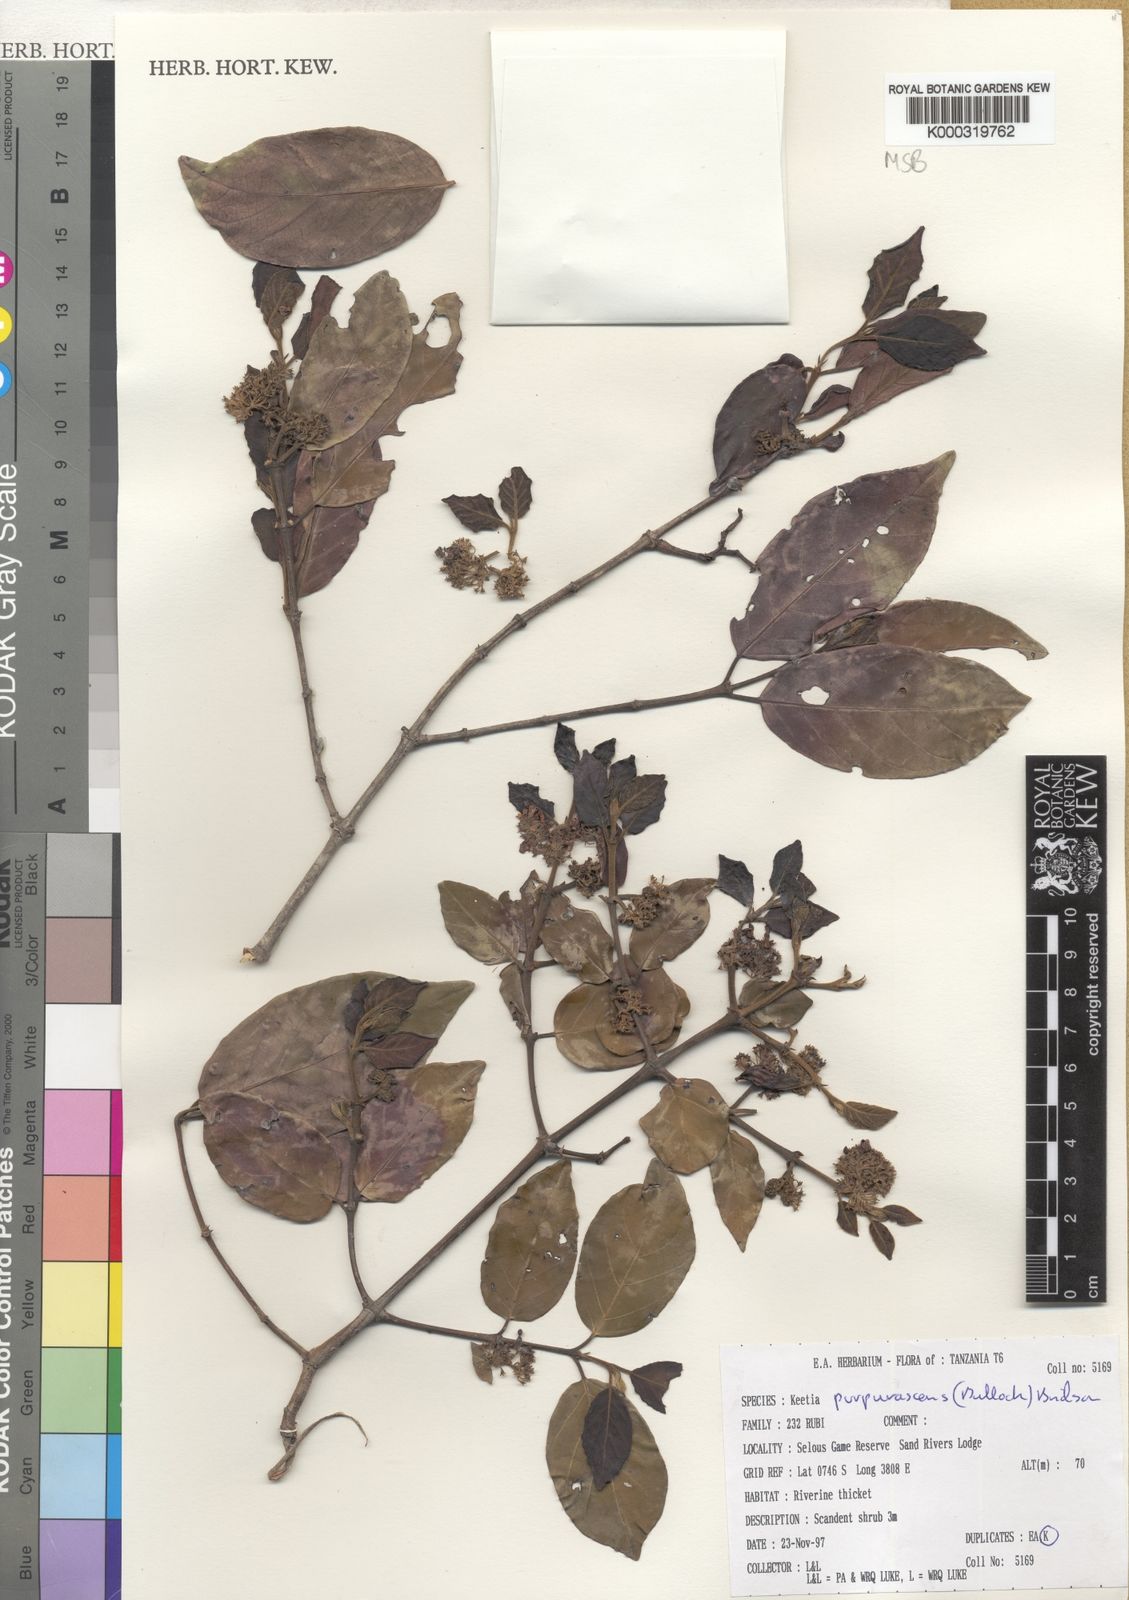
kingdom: Plantae
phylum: Tracheophyta
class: Magnoliopsida
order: Gentianales
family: Rubiaceae
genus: Keetia
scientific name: Keetia purpurascens
